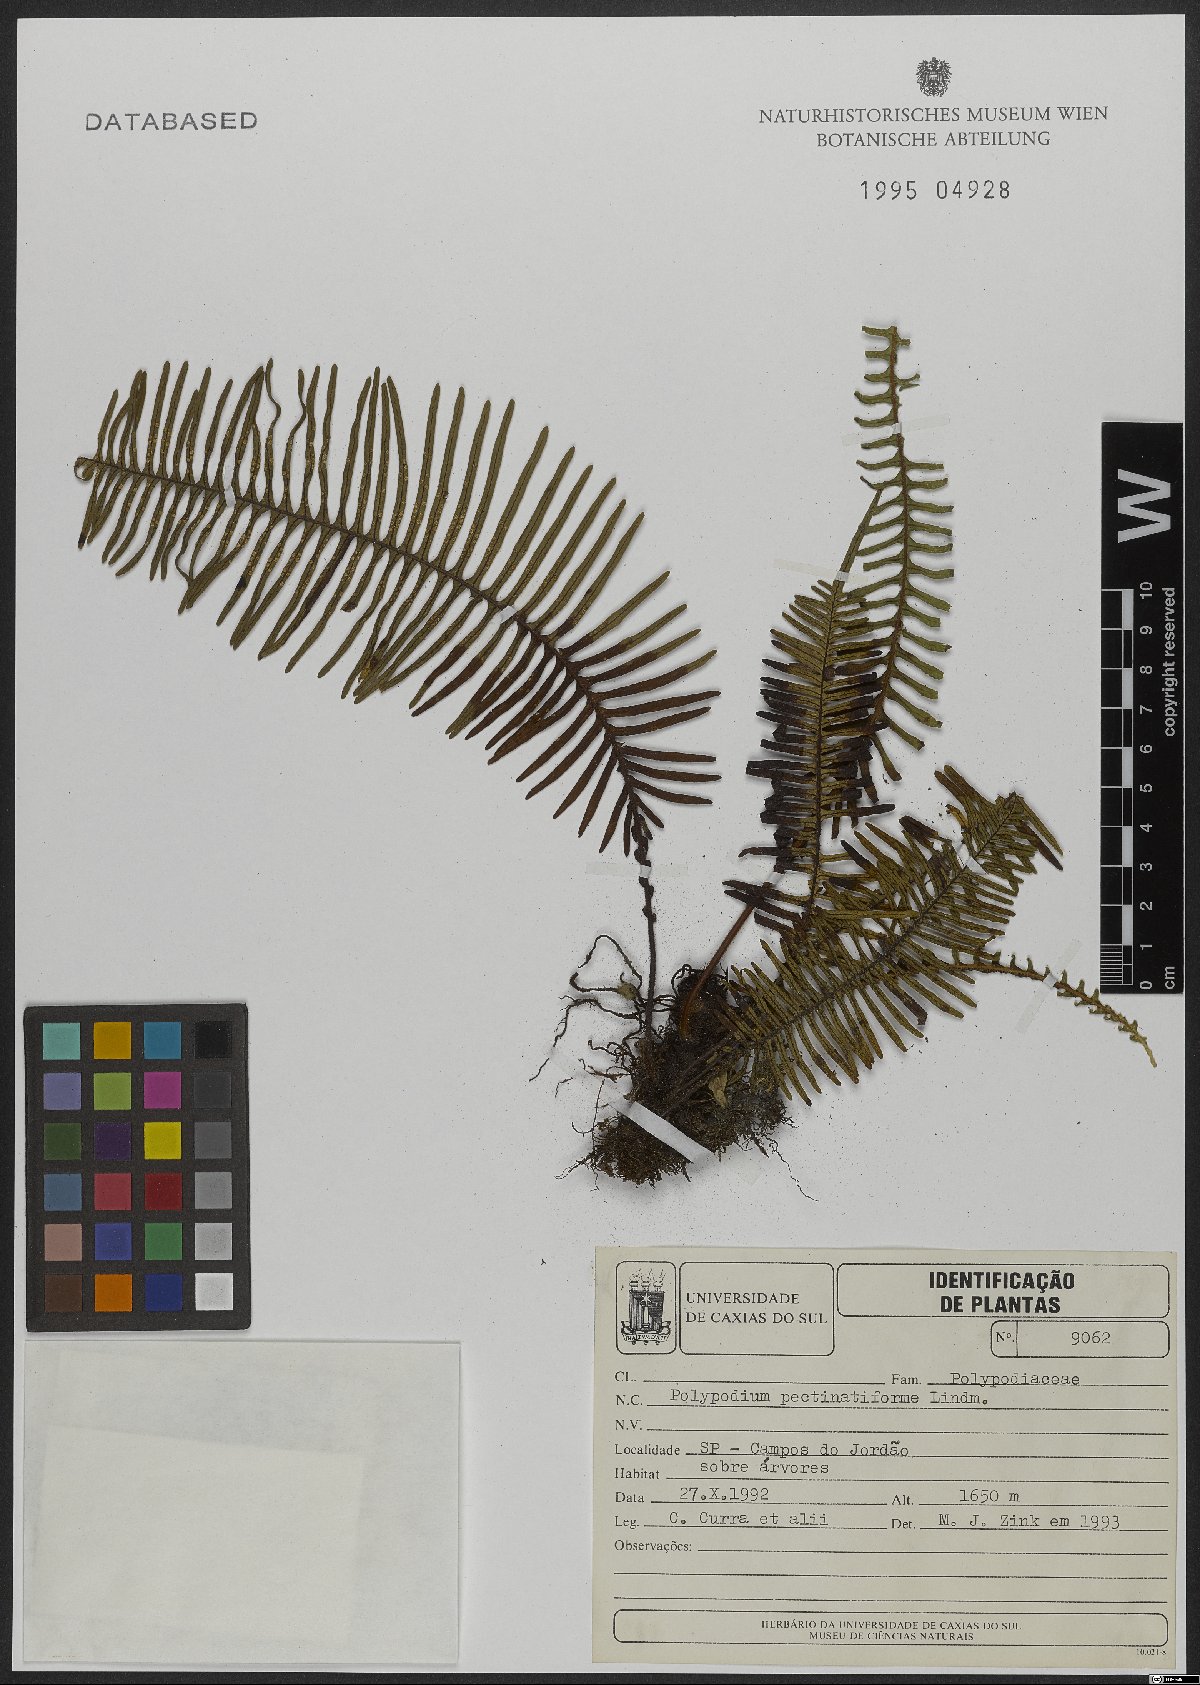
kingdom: Plantae
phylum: Tracheophyta
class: Polypodiopsida
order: Polypodiales
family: Polypodiaceae
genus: Pecluma
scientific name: Pecluma pectinatiformis
